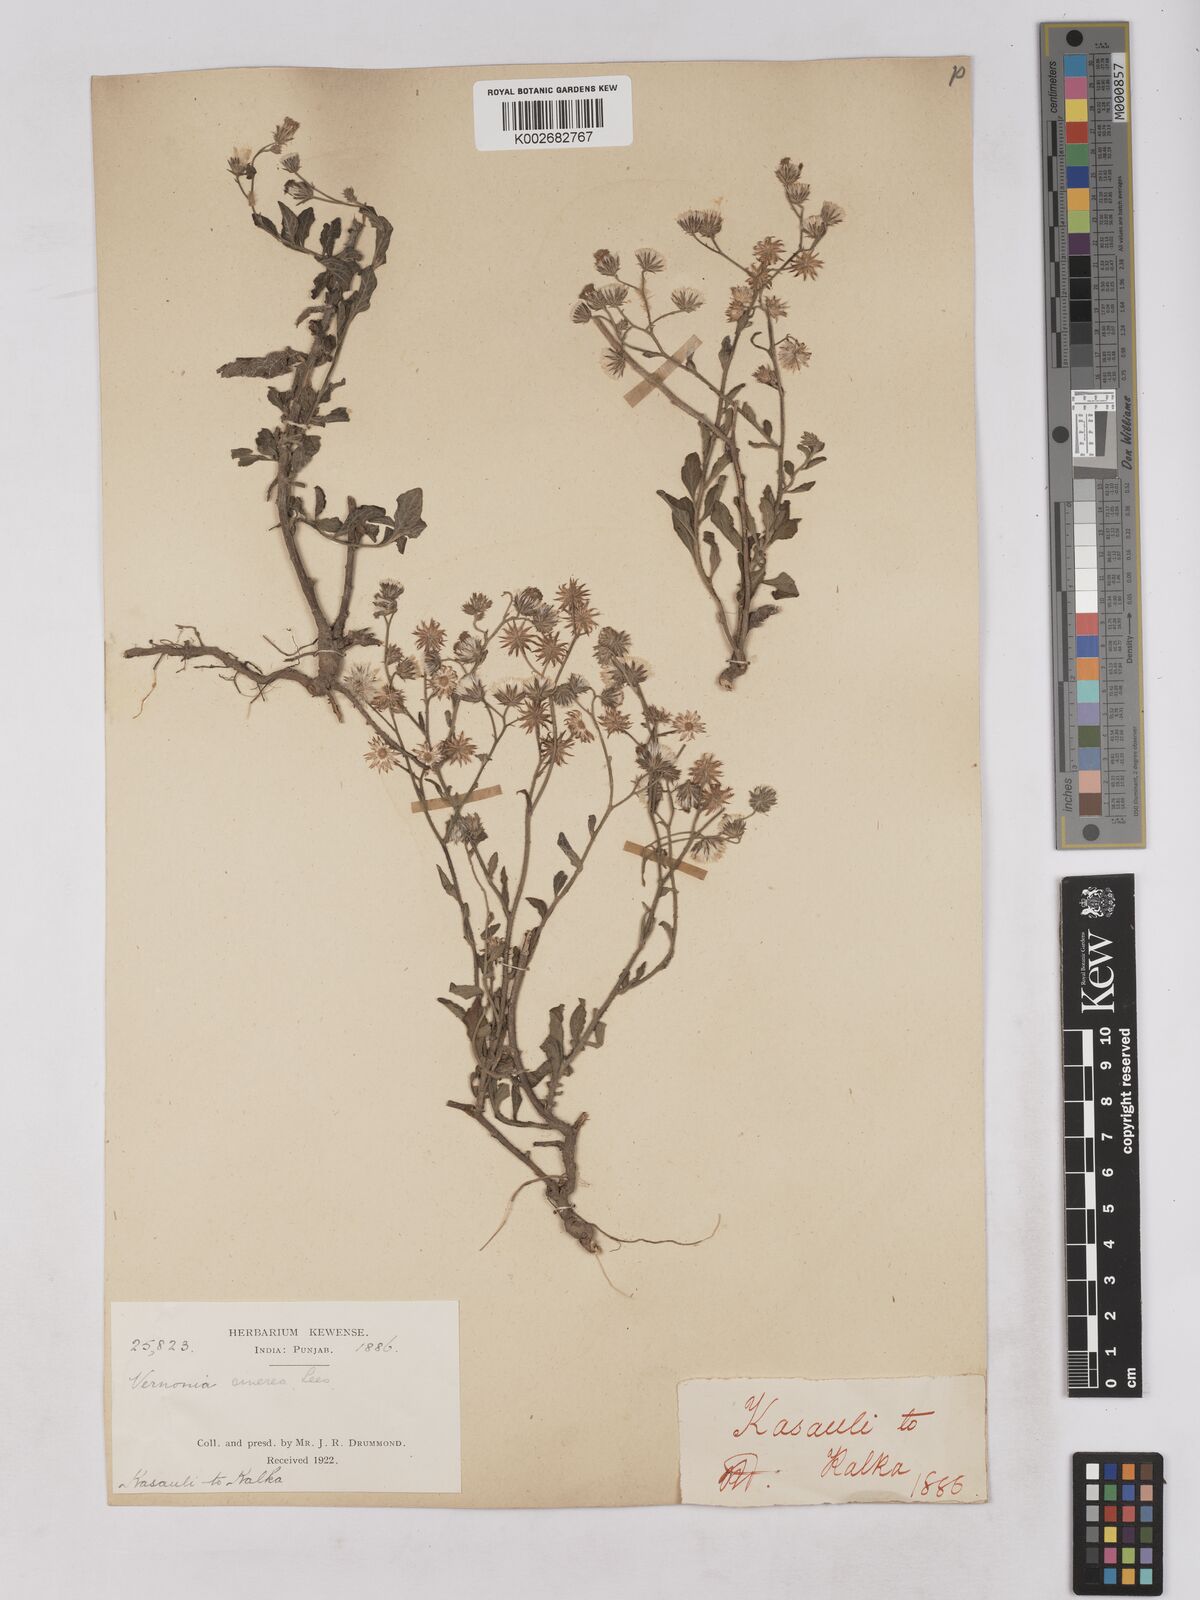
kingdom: Plantae
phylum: Tracheophyta
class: Magnoliopsida
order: Asterales
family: Asteraceae
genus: Cyanthillium
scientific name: Cyanthillium cinereum
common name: Little ironweed
